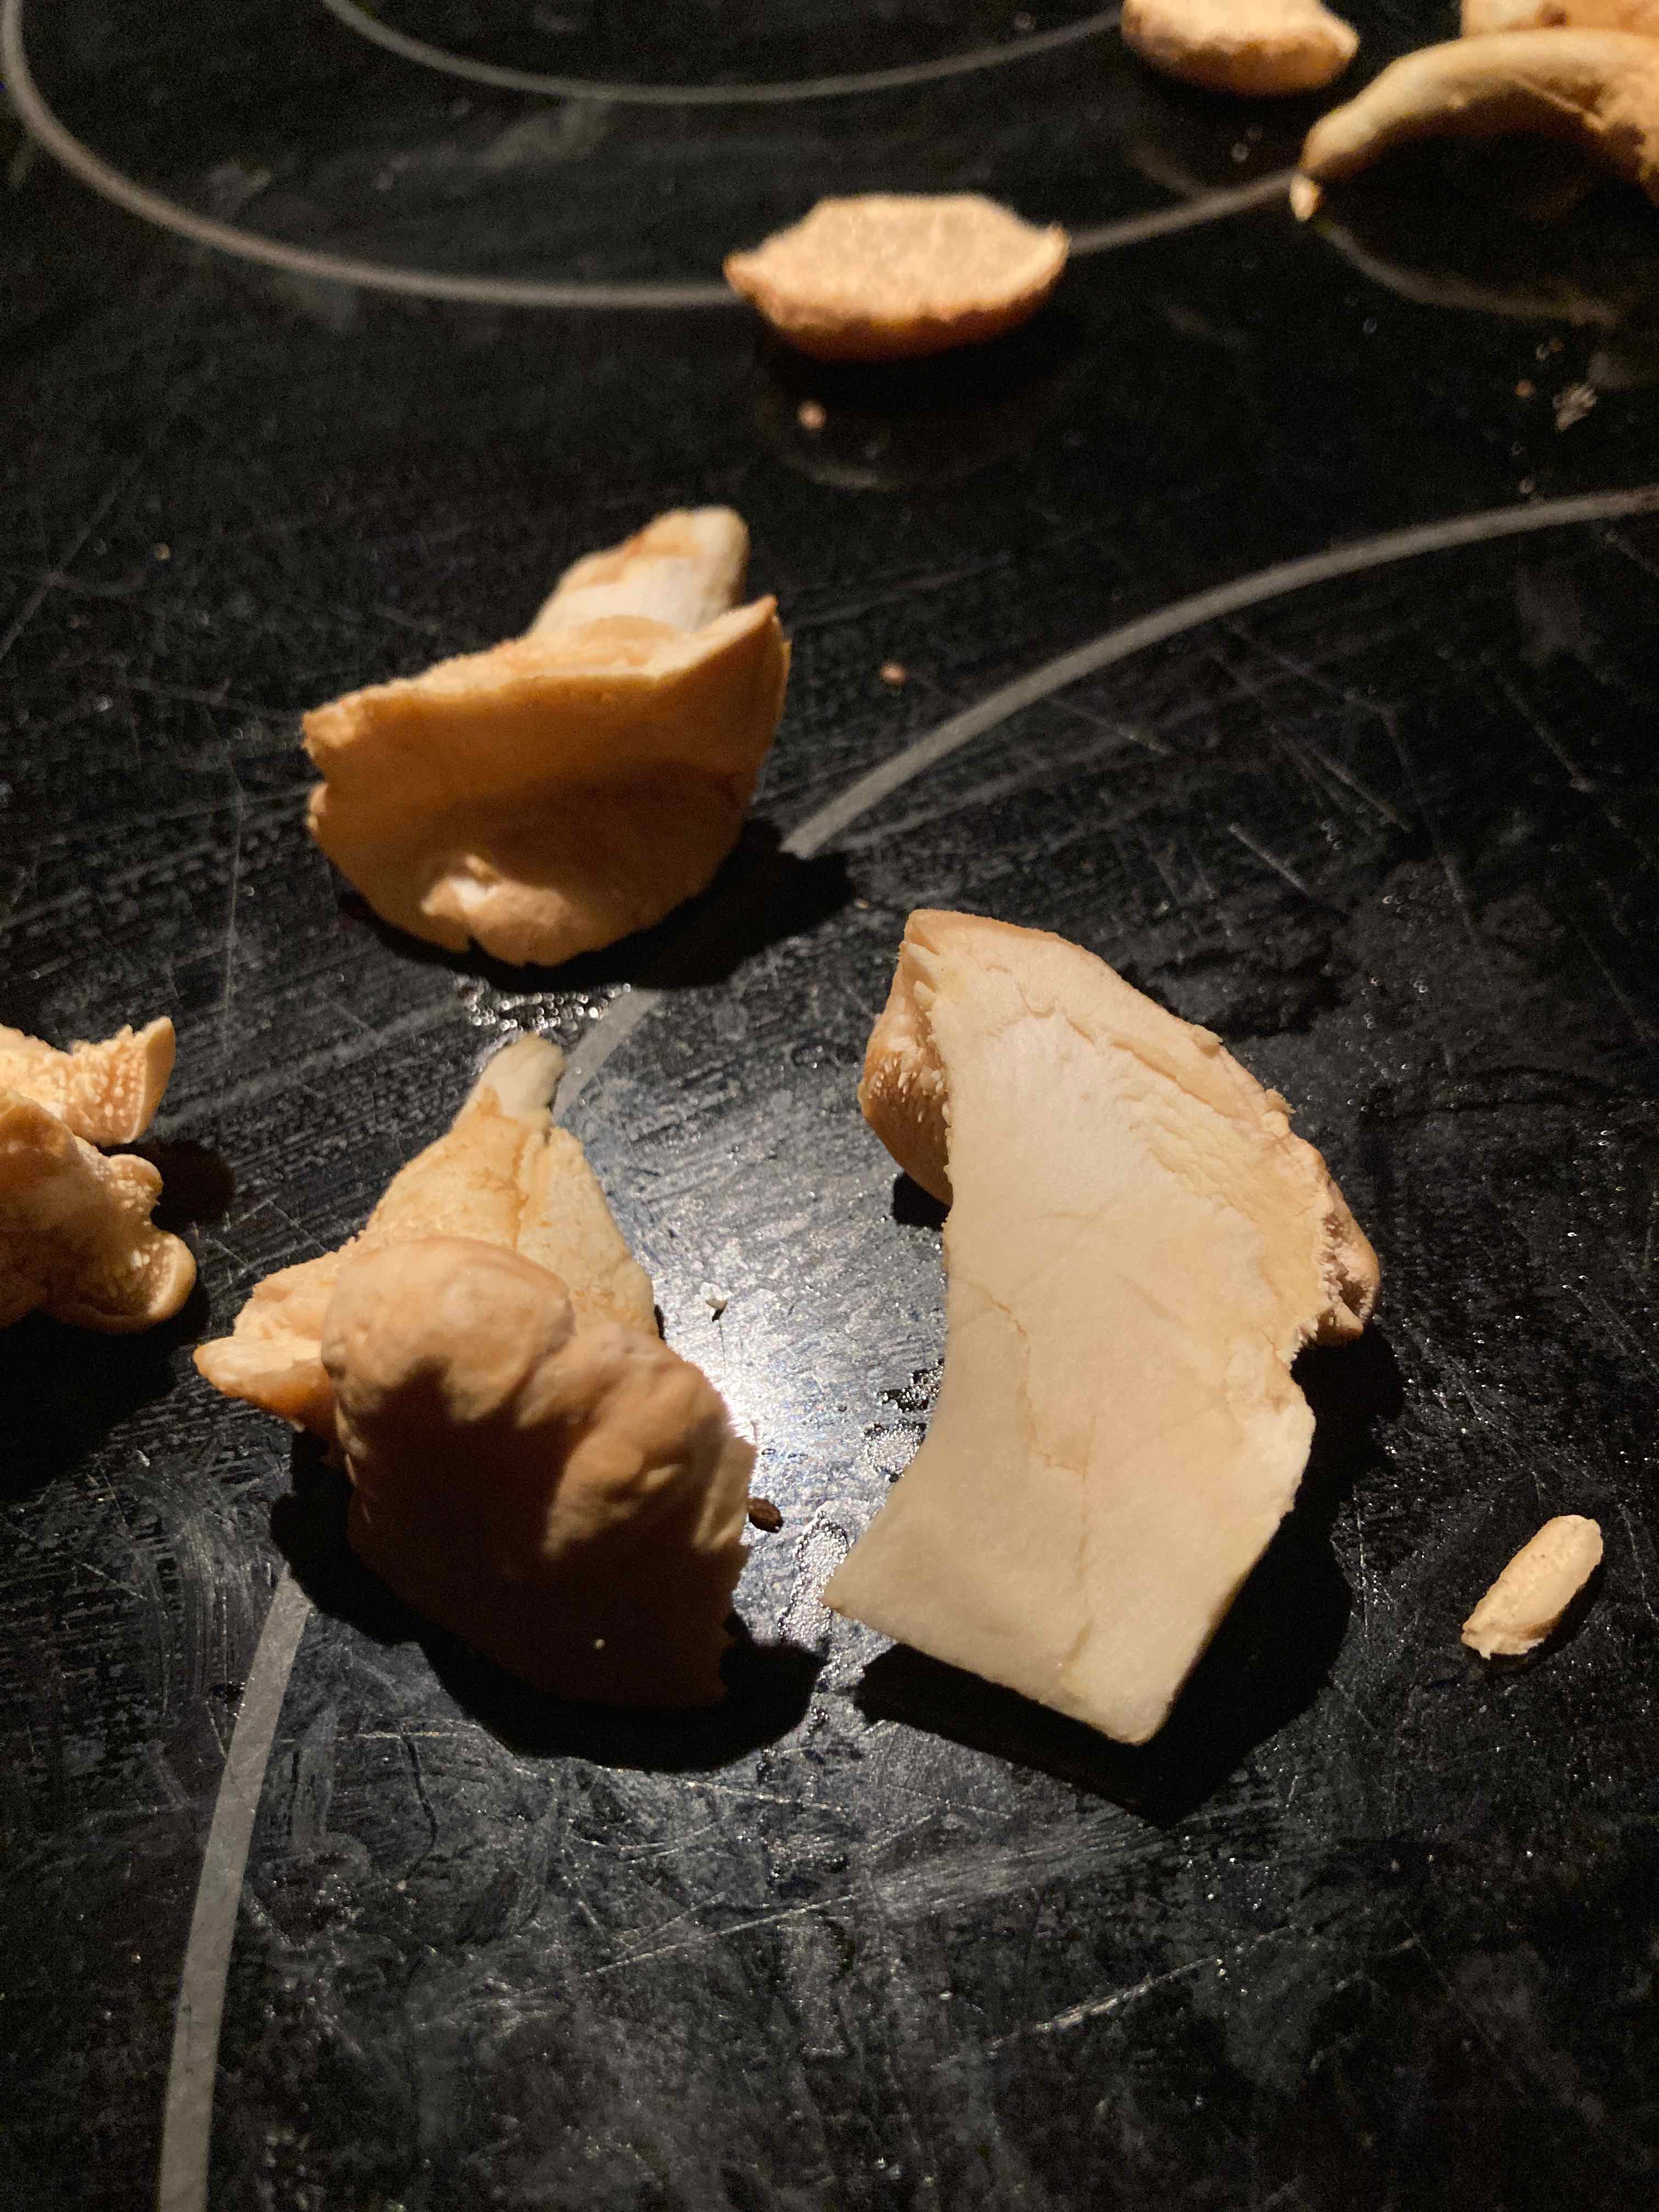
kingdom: Fungi
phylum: Basidiomycota
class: Agaricomycetes
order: Cantharellales
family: Hydnaceae
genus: Hydnum
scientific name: Hydnum
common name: pigsvamp
